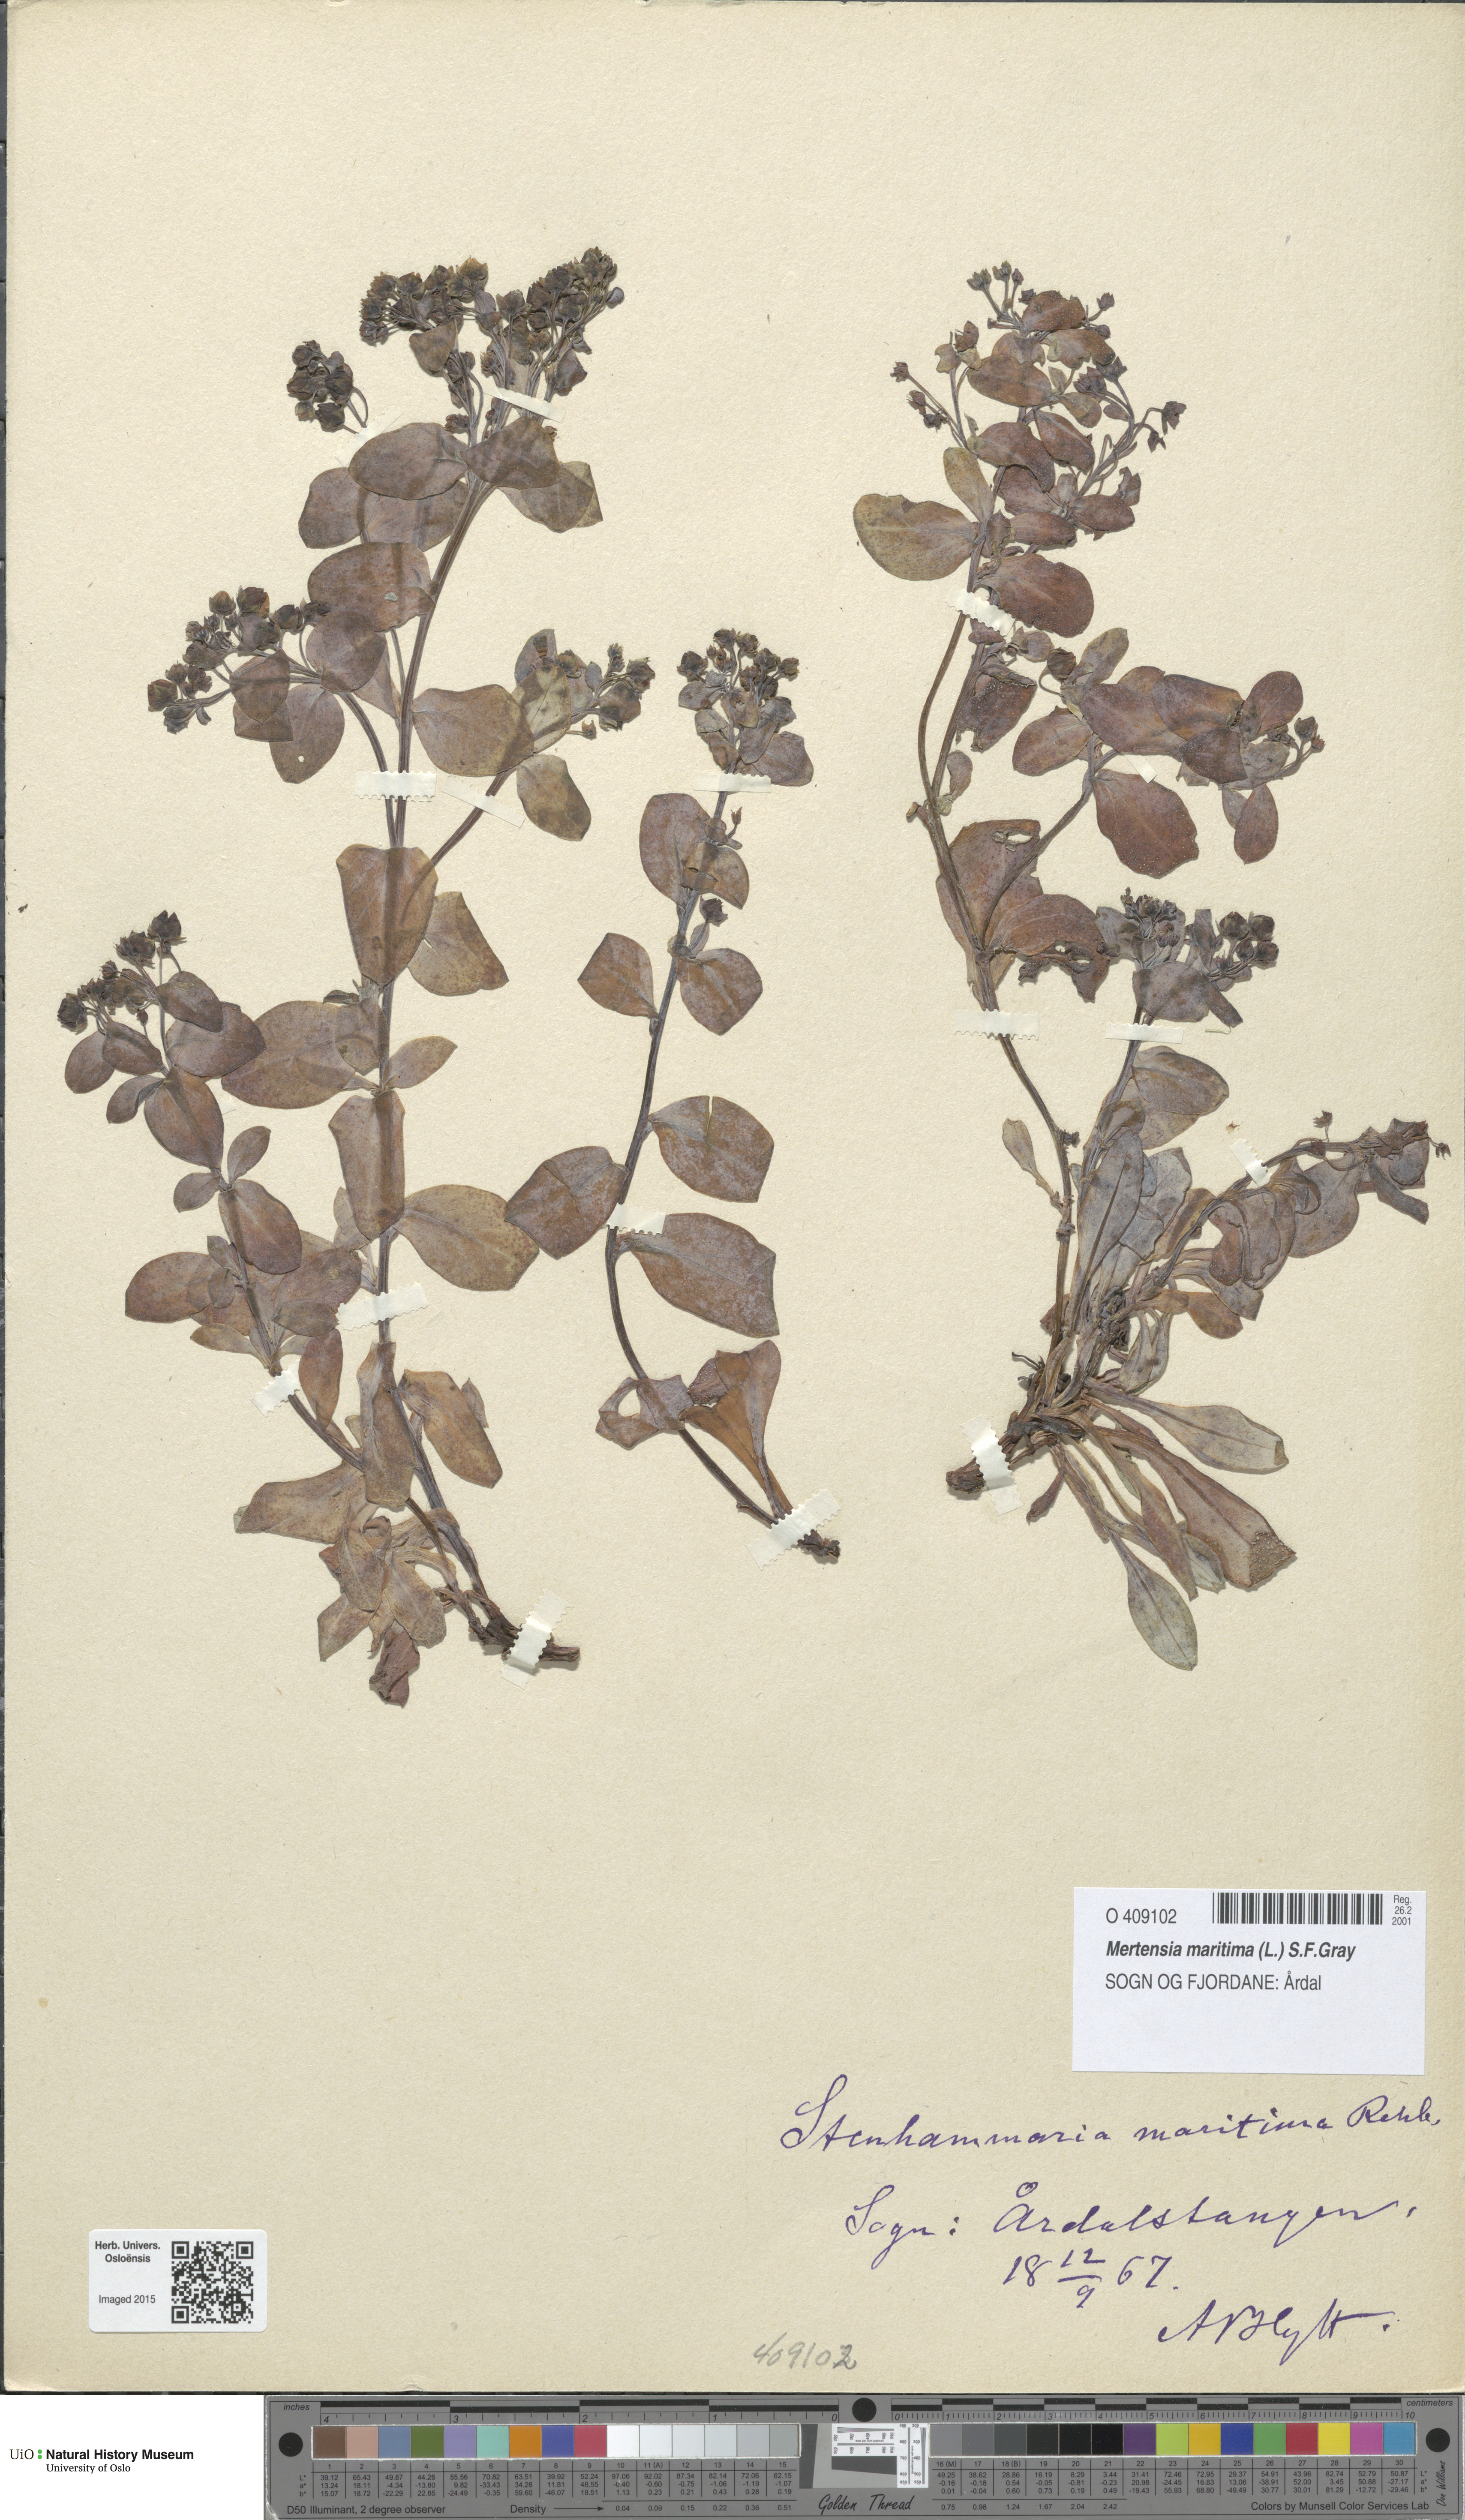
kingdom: Plantae
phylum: Tracheophyta
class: Magnoliopsida
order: Boraginales
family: Boraginaceae
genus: Mertensia
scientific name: Mertensia maritima
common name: Oysterplant
